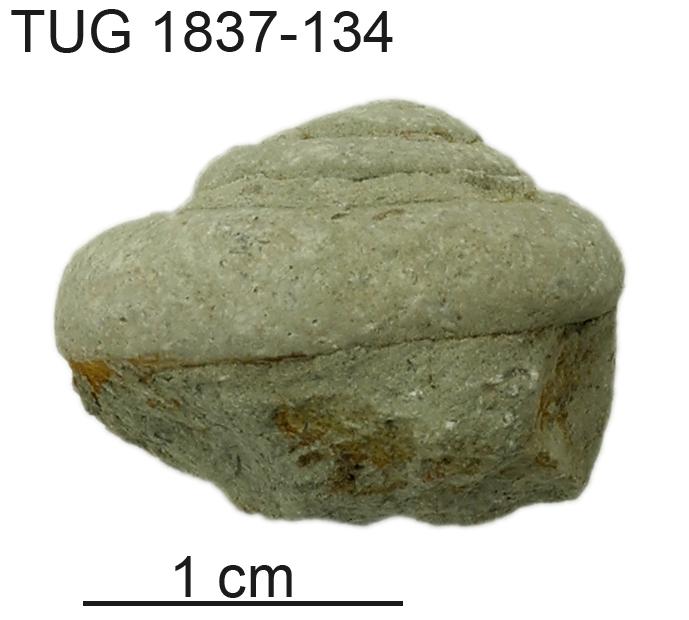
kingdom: Animalia
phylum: Mollusca
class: Gastropoda
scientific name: Gastropoda
